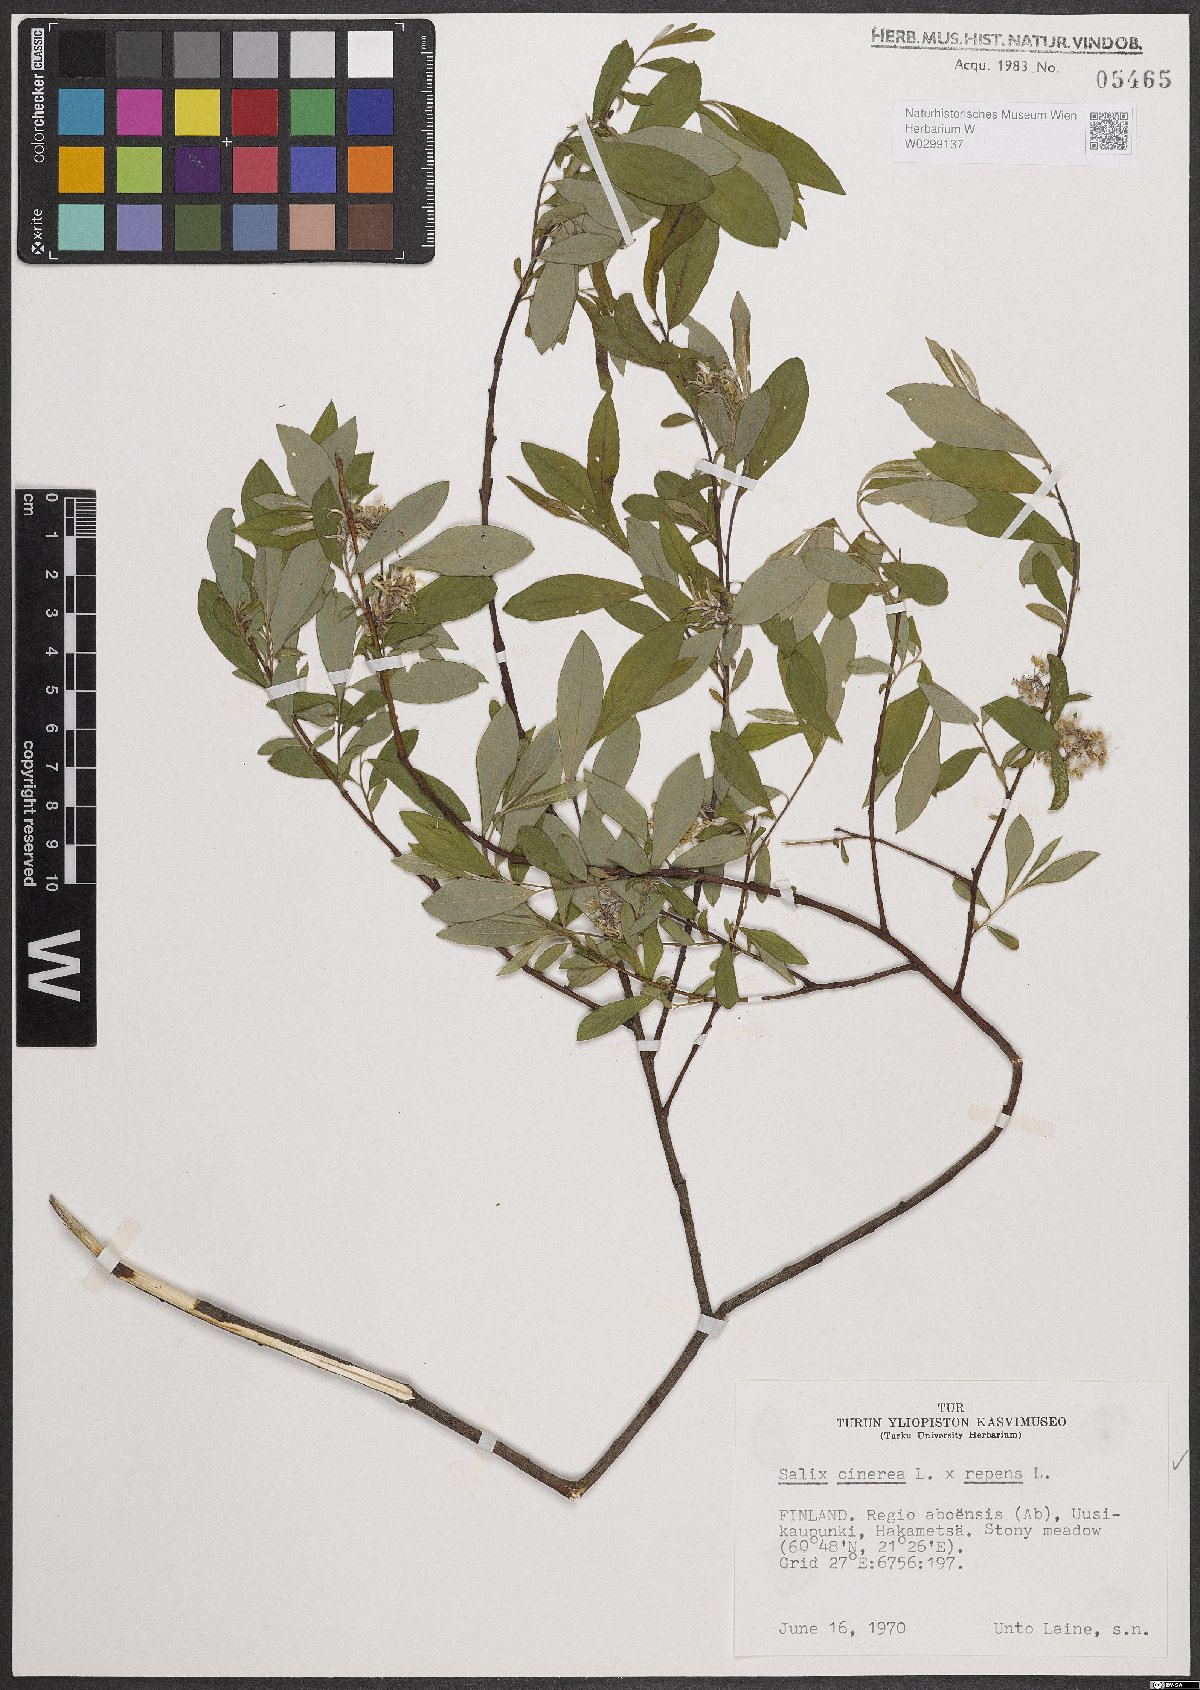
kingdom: Plantae
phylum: Tracheophyta
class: Magnoliopsida
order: Malpighiales
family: Salicaceae
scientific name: Salicaceae
